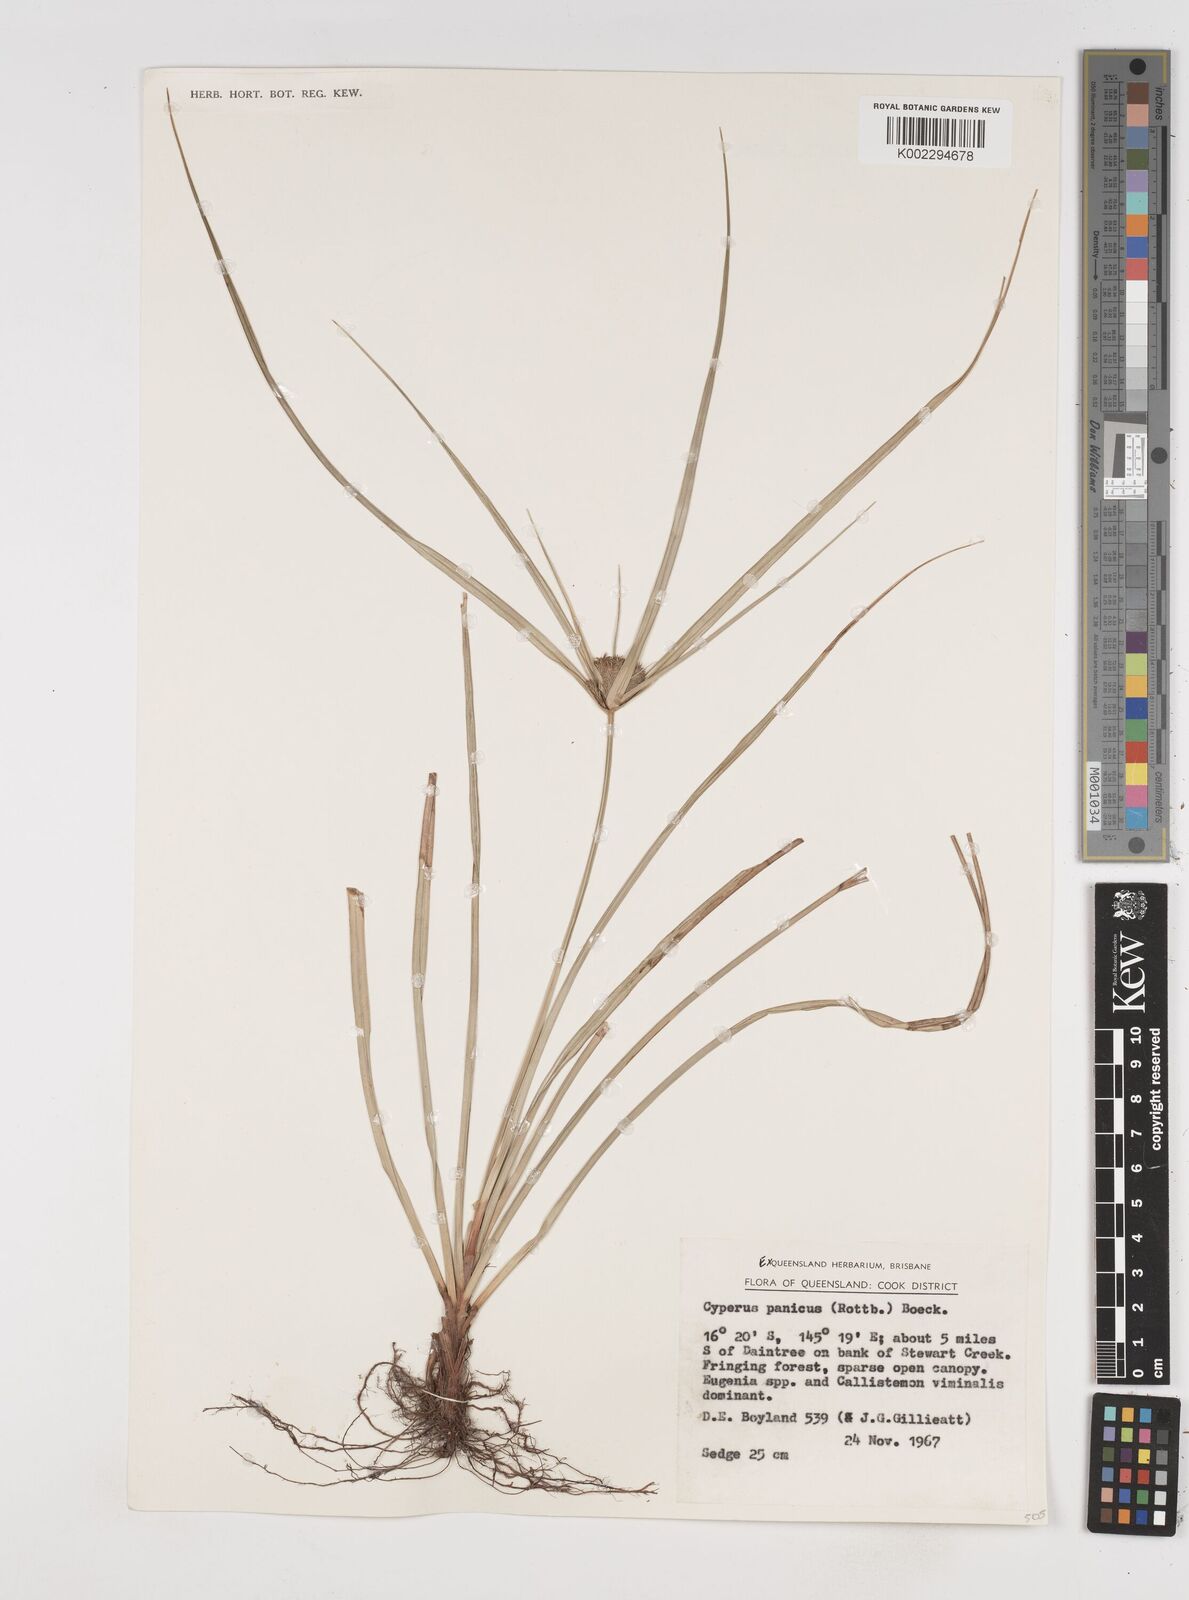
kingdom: Plantae
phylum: Tracheophyta
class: Liliopsida
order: Poales
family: Cyperaceae
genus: Cyperus
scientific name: Cyperus paniceus
